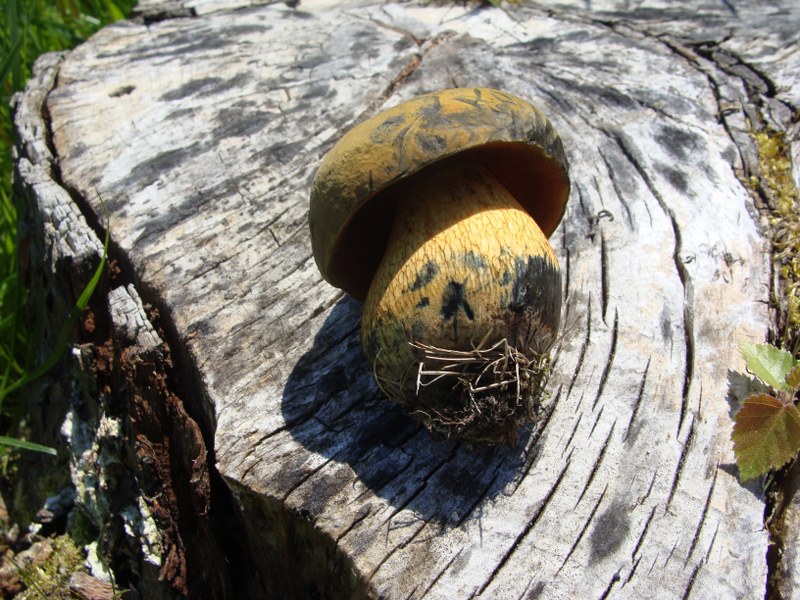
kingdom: Fungi
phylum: Basidiomycota
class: Agaricomycetes
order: Boletales
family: Boletaceae
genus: Suillellus
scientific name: Suillellus luridus
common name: netstokket indigorørhat
